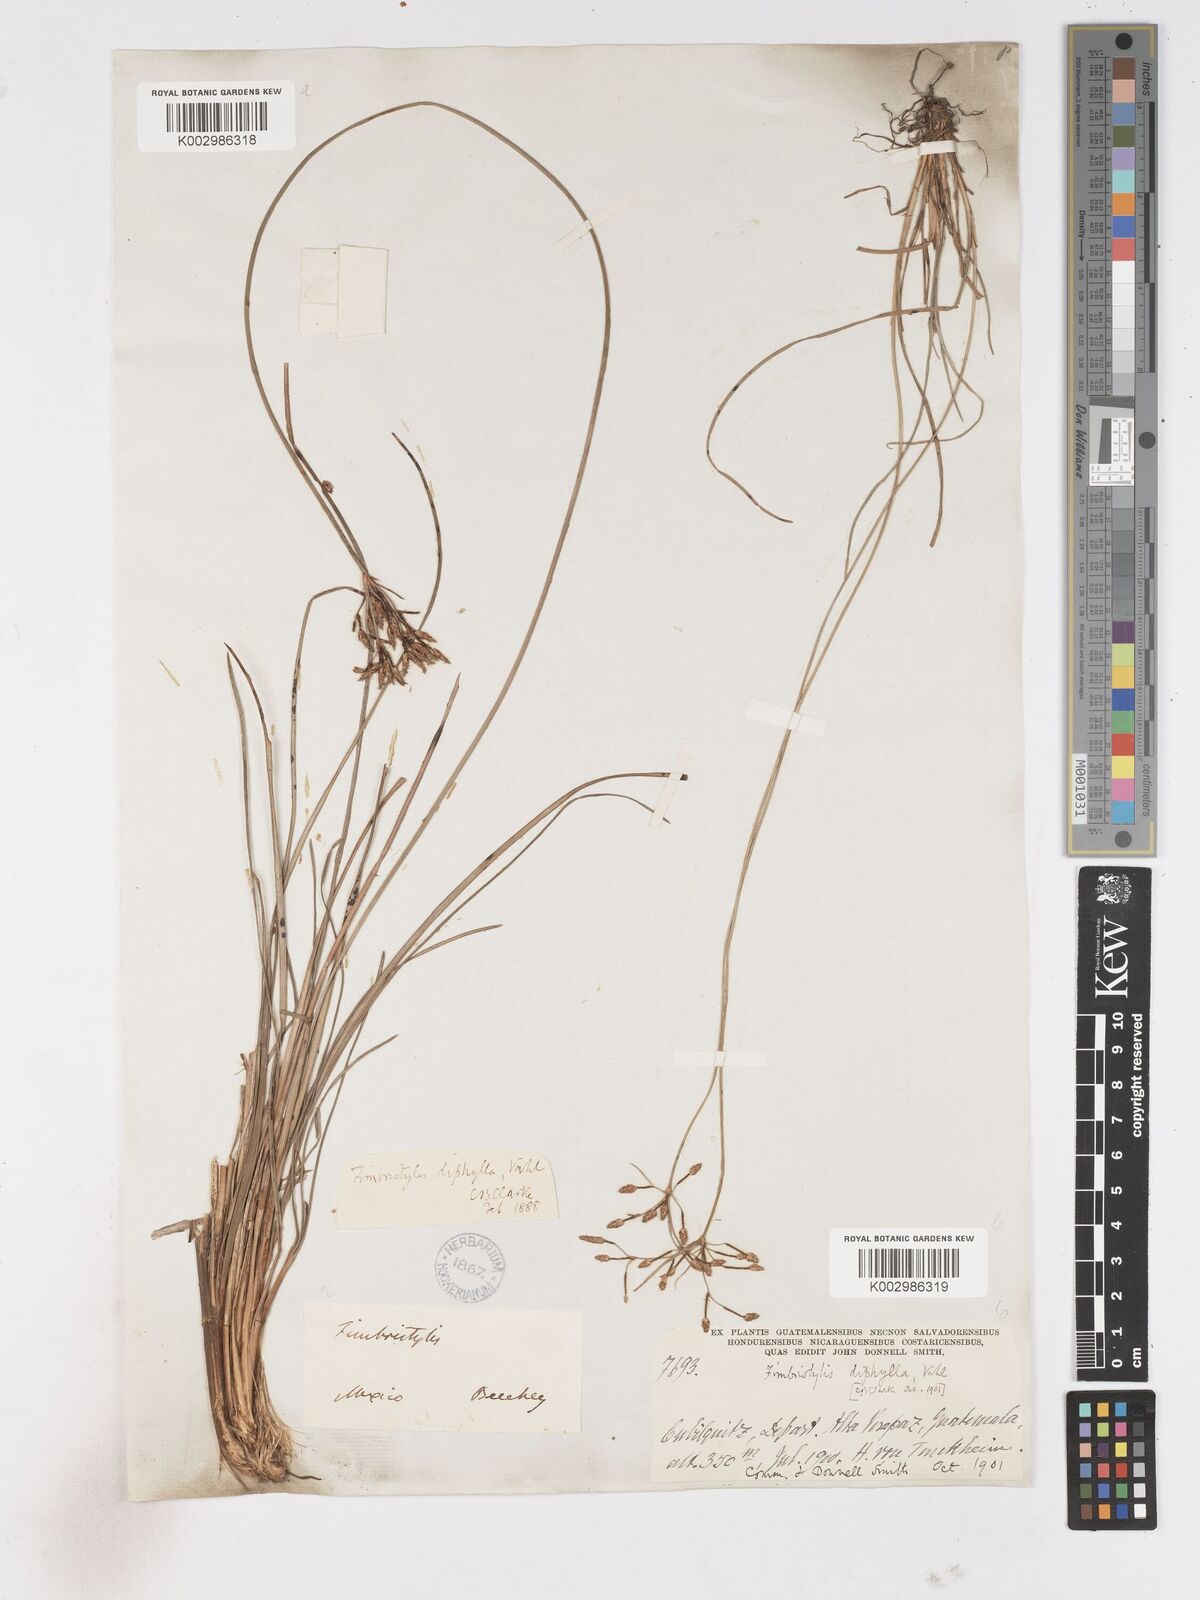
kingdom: Plantae
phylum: Tracheophyta
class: Liliopsida
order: Poales
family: Cyperaceae
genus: Fimbristylis
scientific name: Fimbristylis dichotoma
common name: Forked fimbry
